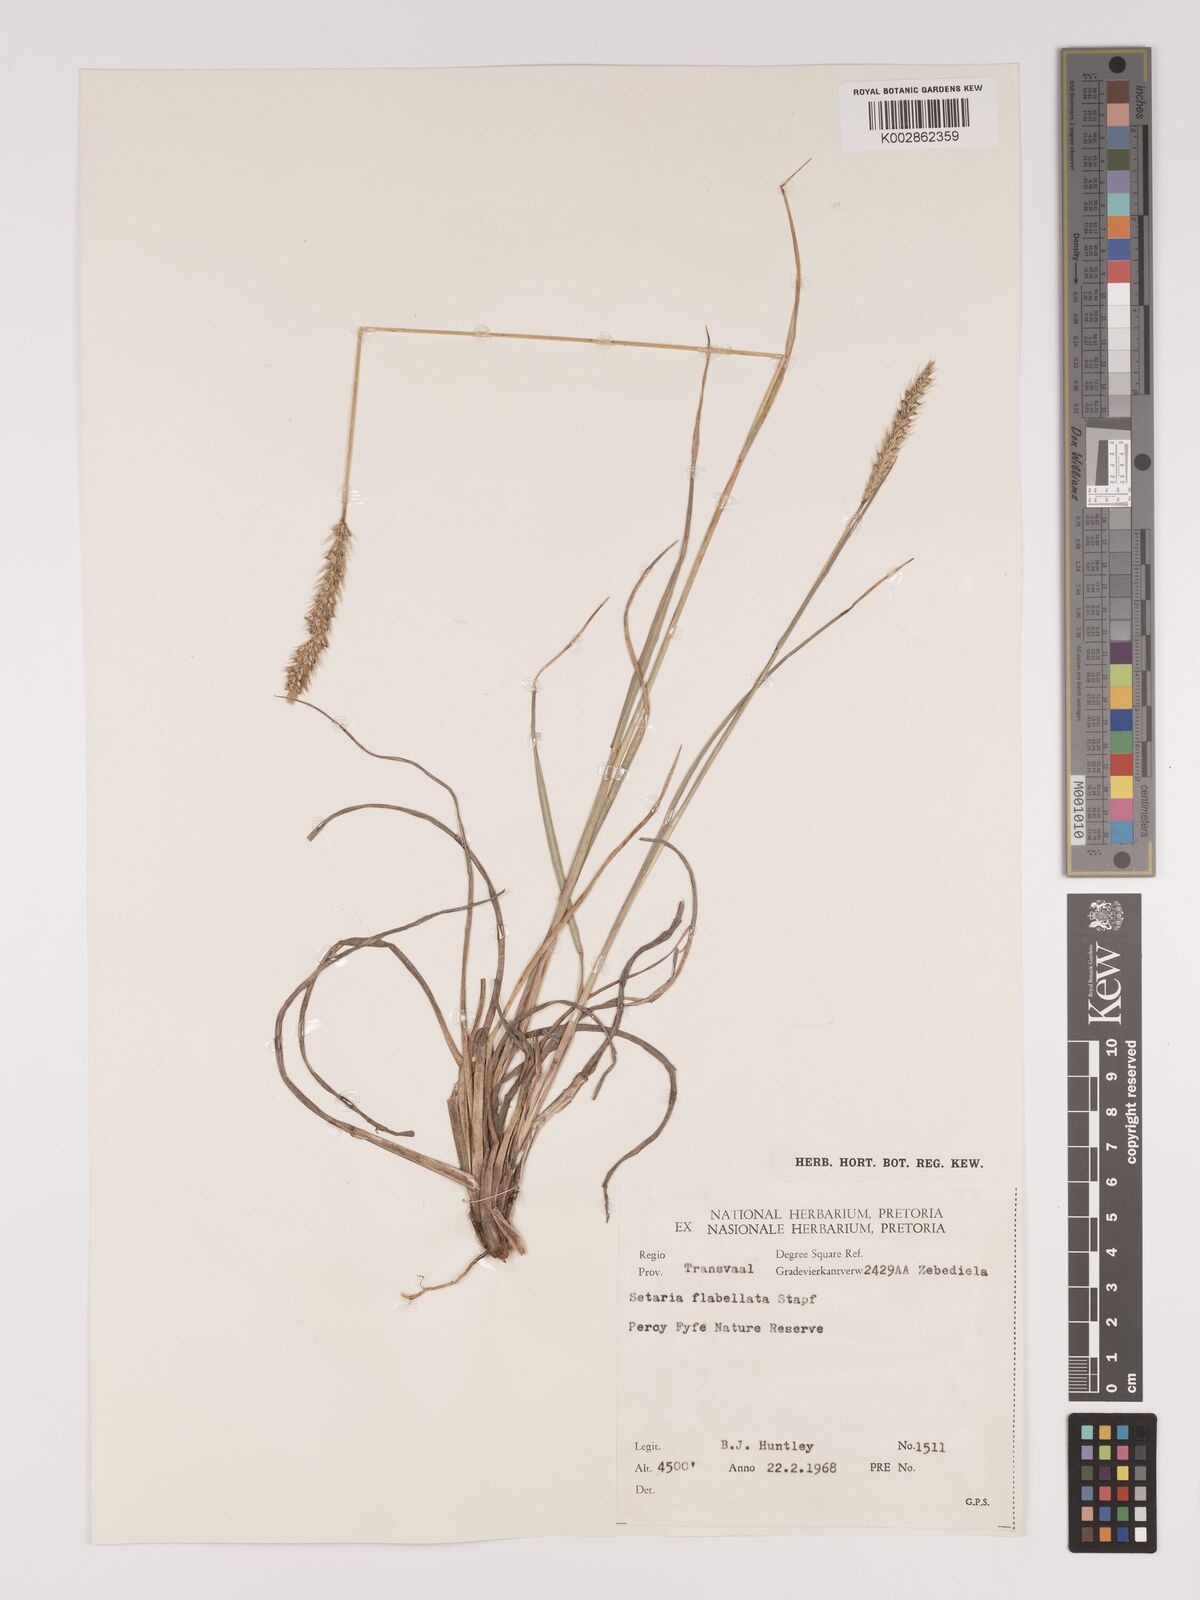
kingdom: Plantae
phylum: Tracheophyta
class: Liliopsida
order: Poales
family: Poaceae
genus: Setaria
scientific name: Setaria sphacelata
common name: African bristlegrass
